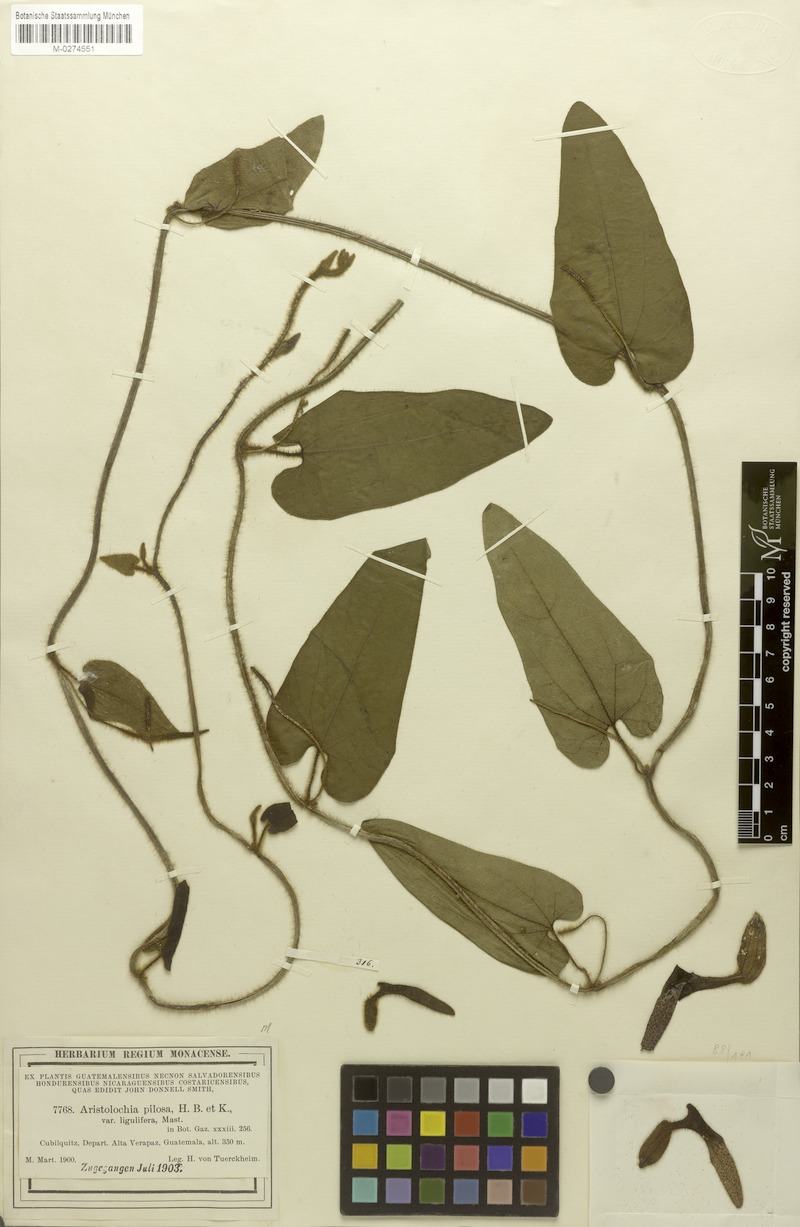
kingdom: Plantae
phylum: Tracheophyta
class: Magnoliopsida
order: Piperales
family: Aristolochiaceae
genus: Aristolochia
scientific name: Aristolochia pilosa
